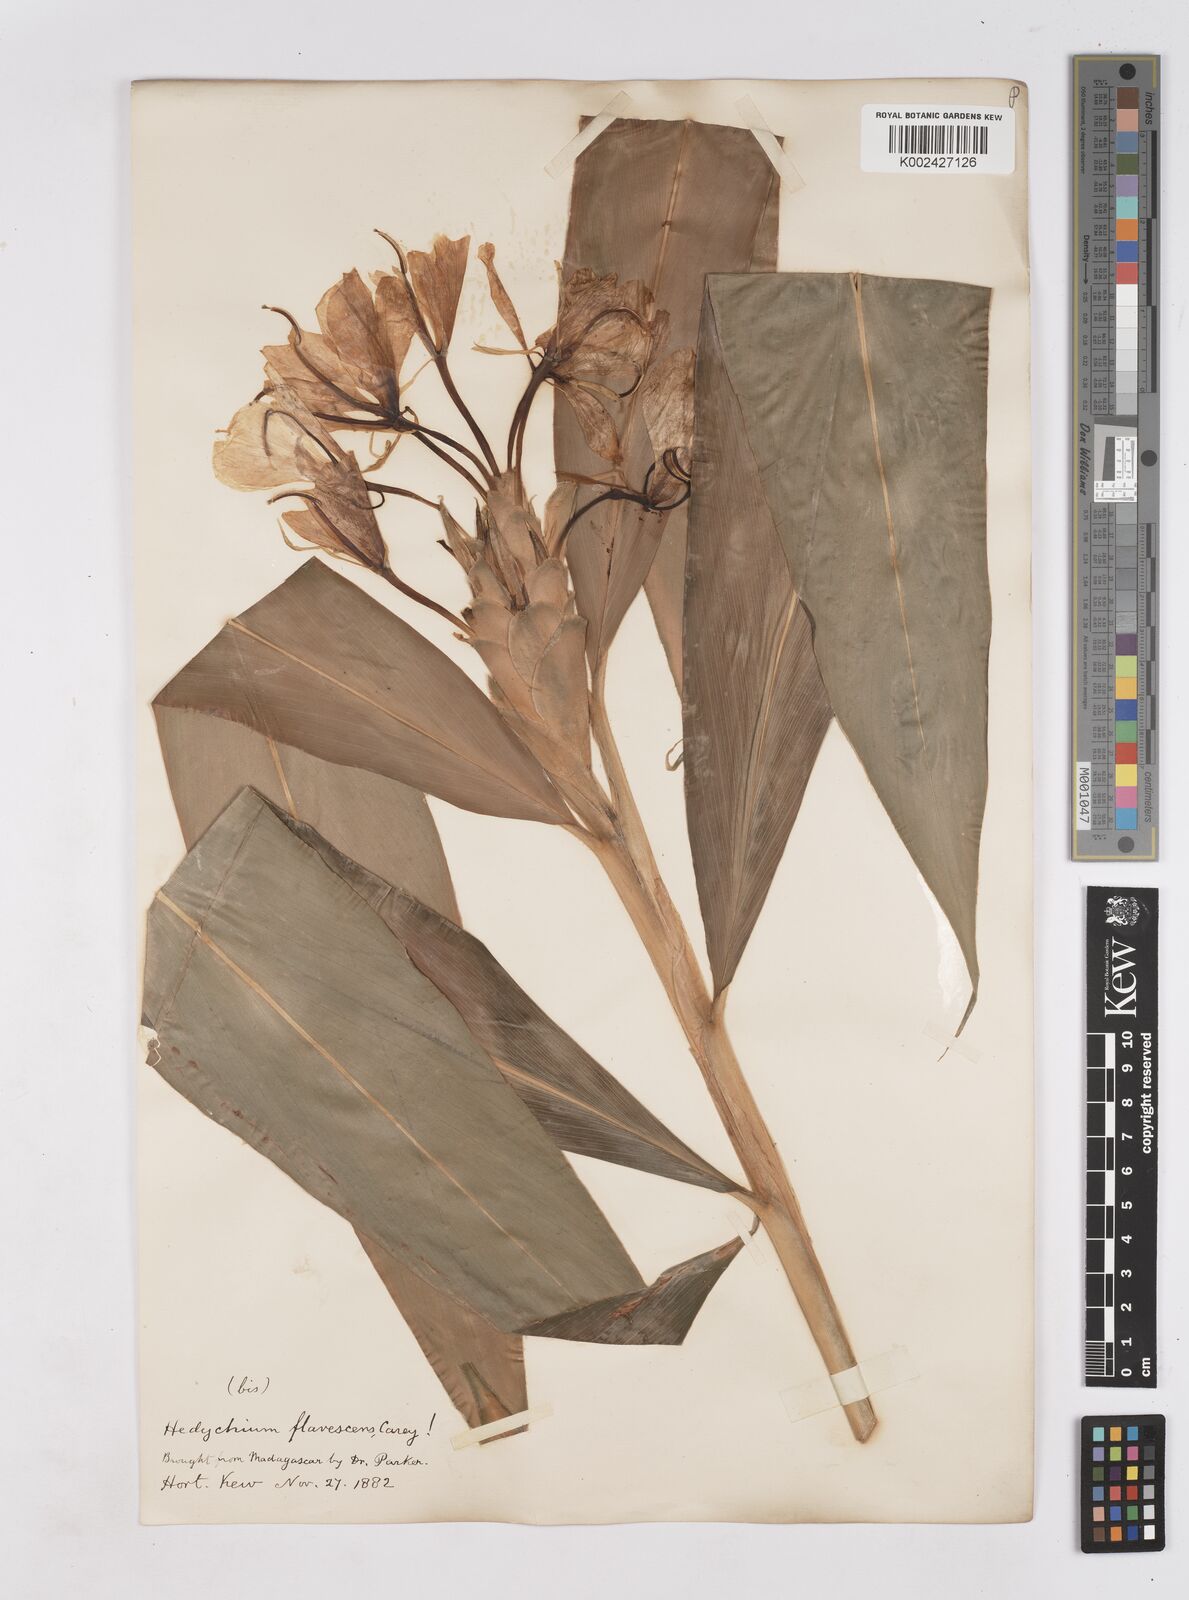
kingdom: Plantae
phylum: Tracheophyta
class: Liliopsida
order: Zingiberales
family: Zingiberaceae
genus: Hedychium
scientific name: Hedychium coronarium
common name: White garland-lily
